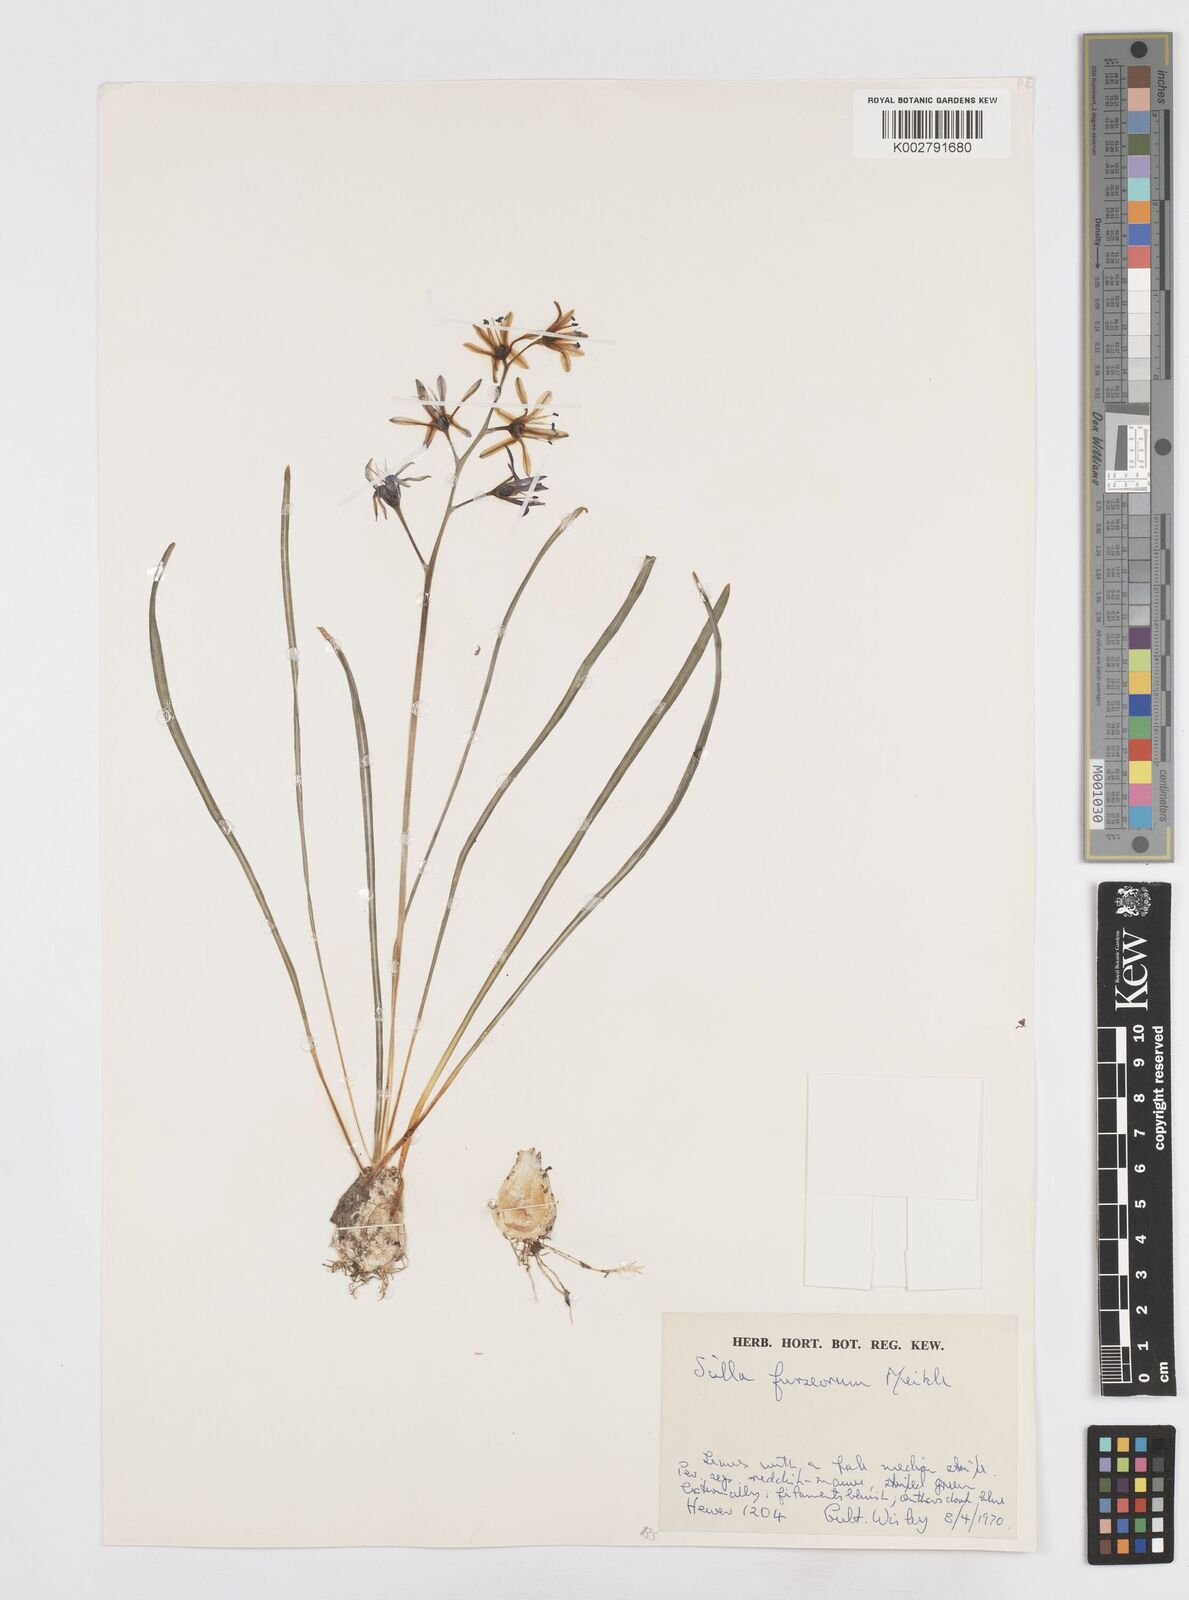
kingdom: Plantae
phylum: Tracheophyta
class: Liliopsida
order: Asparagales
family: Asparagaceae
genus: Fessia
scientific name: Fessia furseorum
